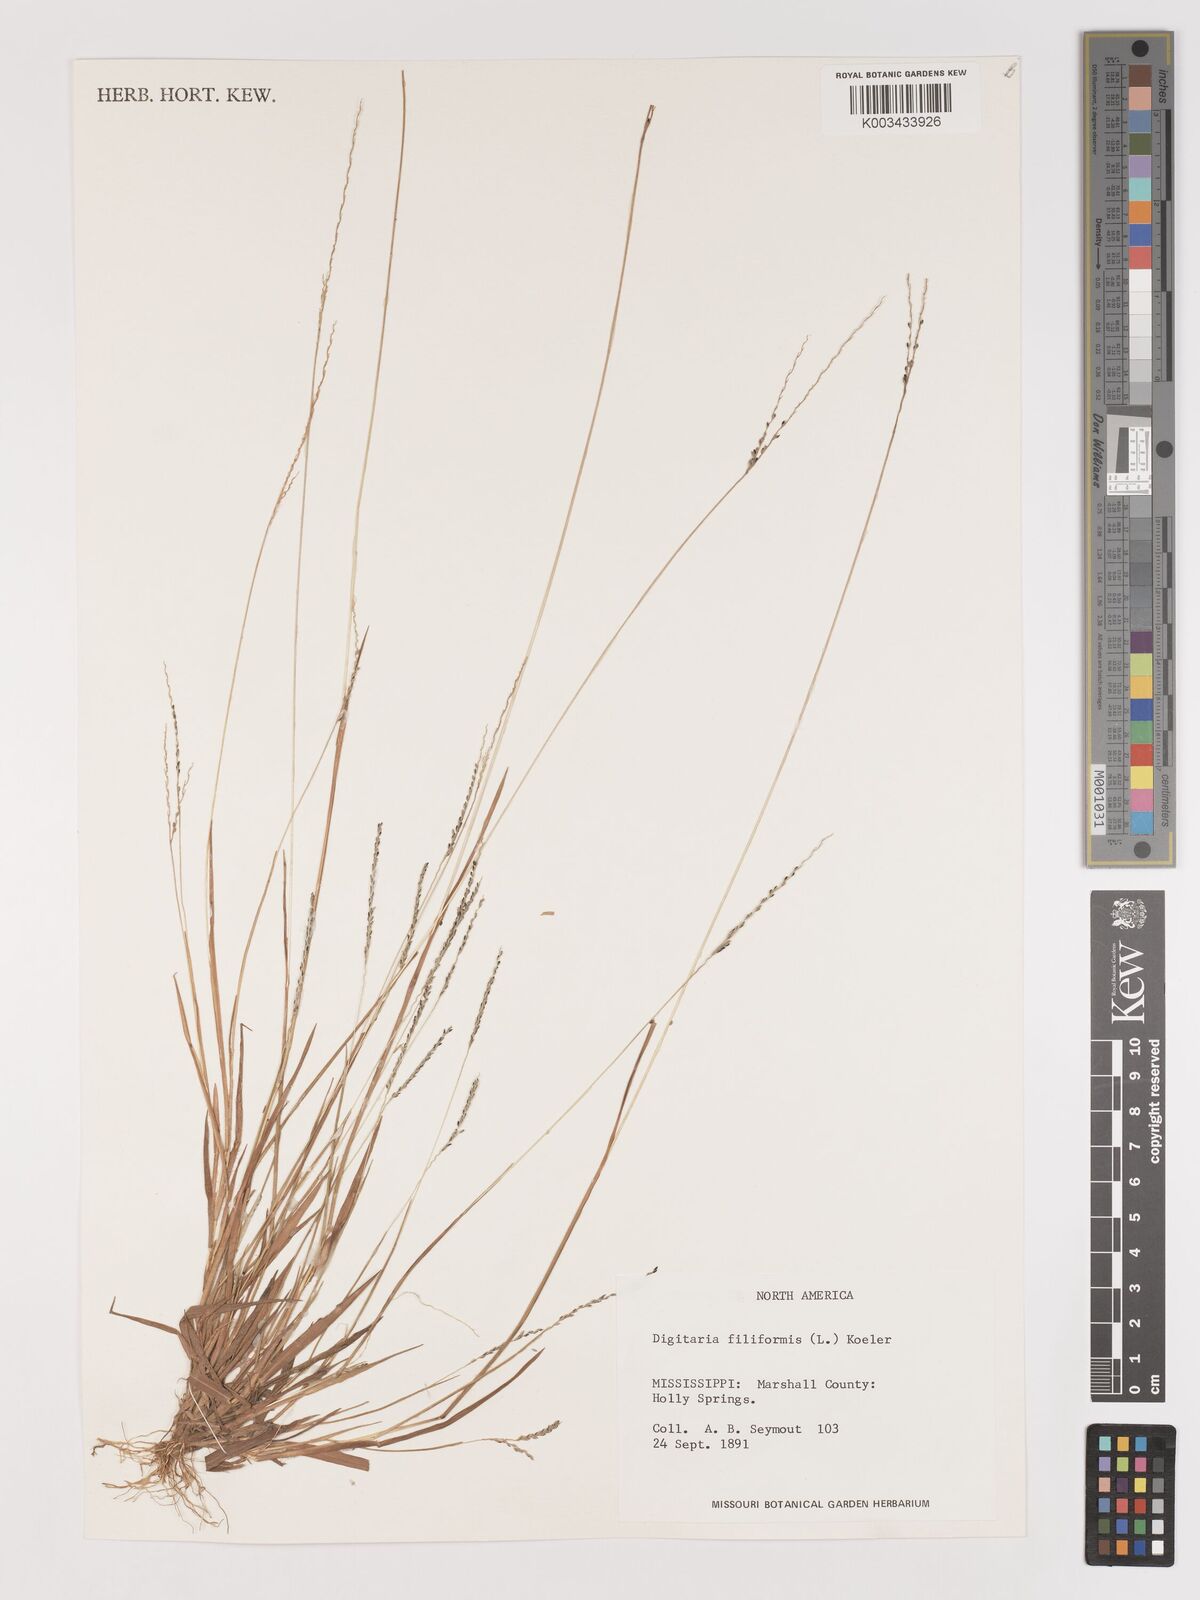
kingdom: Plantae
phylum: Tracheophyta
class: Liliopsida
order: Poales
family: Poaceae
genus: Digitaria
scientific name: Digitaria filiformis
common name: Slender crabgrass
